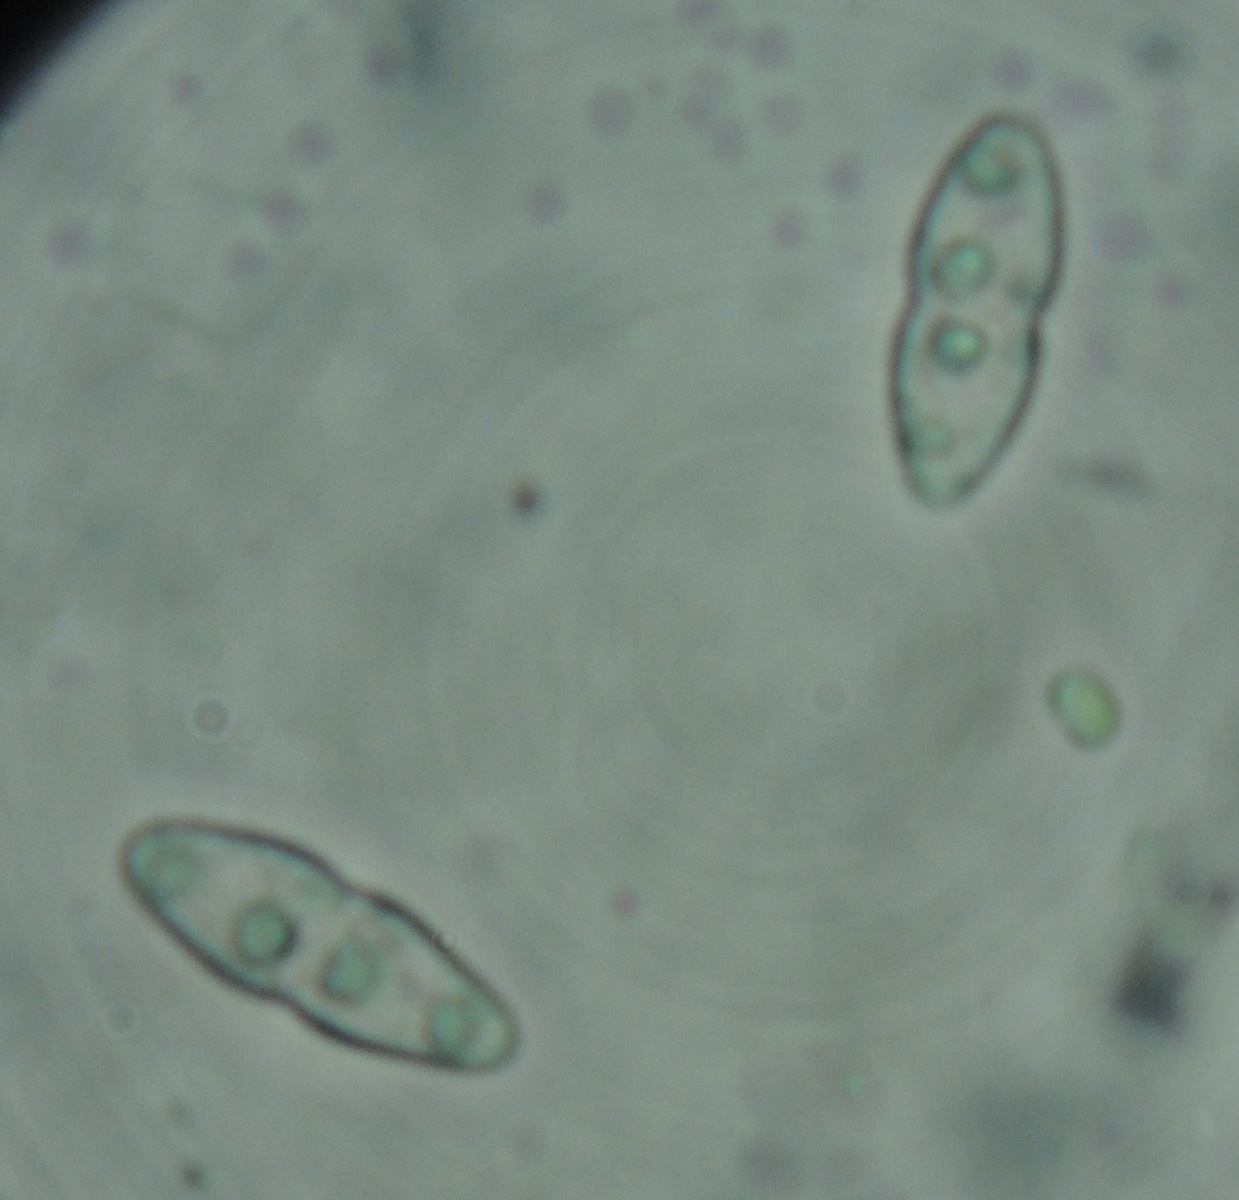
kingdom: Fungi
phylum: Ascomycota
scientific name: Ascomycota
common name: sæksvampe
